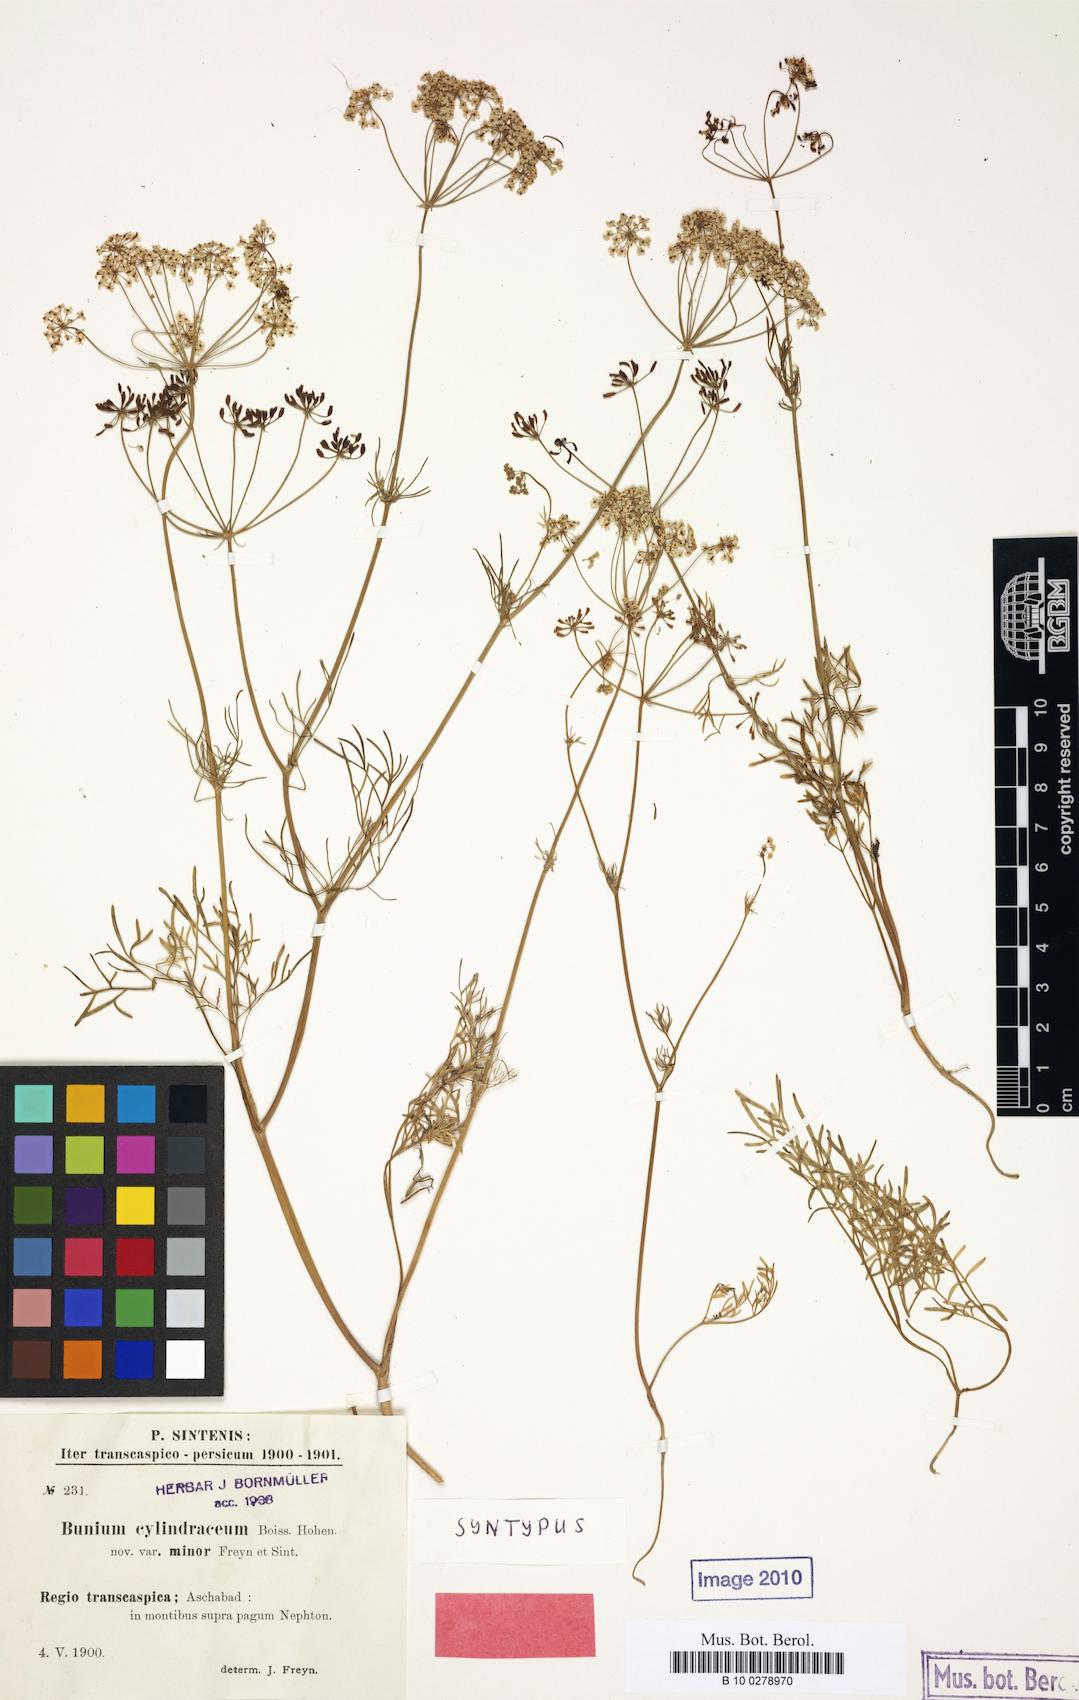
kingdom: Plantae
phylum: Tracheophyta
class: Magnoliopsida
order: Apiales
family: Apiaceae
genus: Elwendia
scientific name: Elwendia cylindrica
